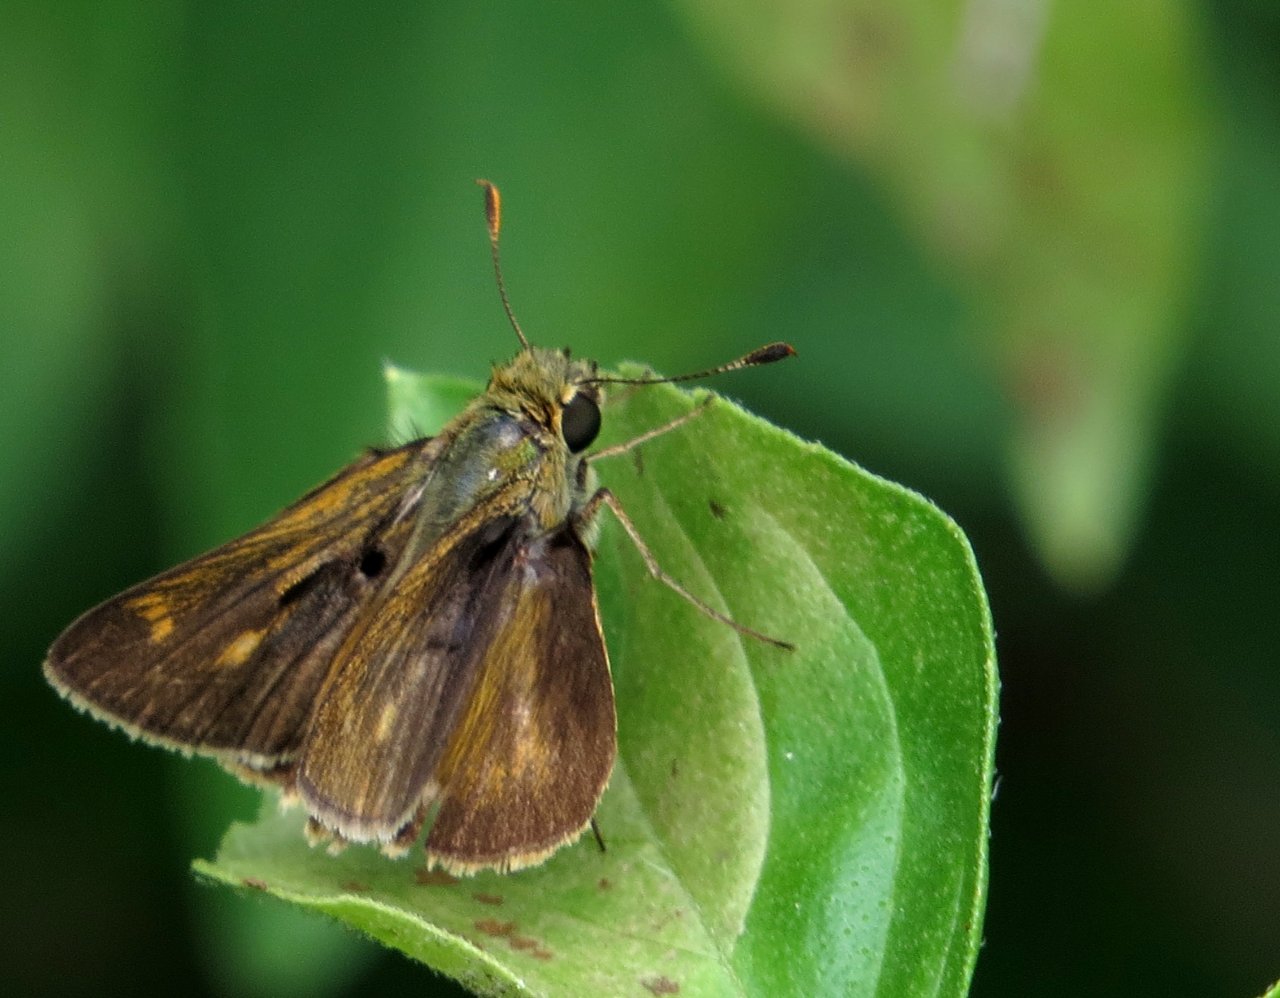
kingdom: Animalia
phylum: Arthropoda
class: Insecta
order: Lepidoptera
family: Hesperiidae
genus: Wallengrenia
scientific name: Wallengrenia otho
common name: Southern Broken-Dash
